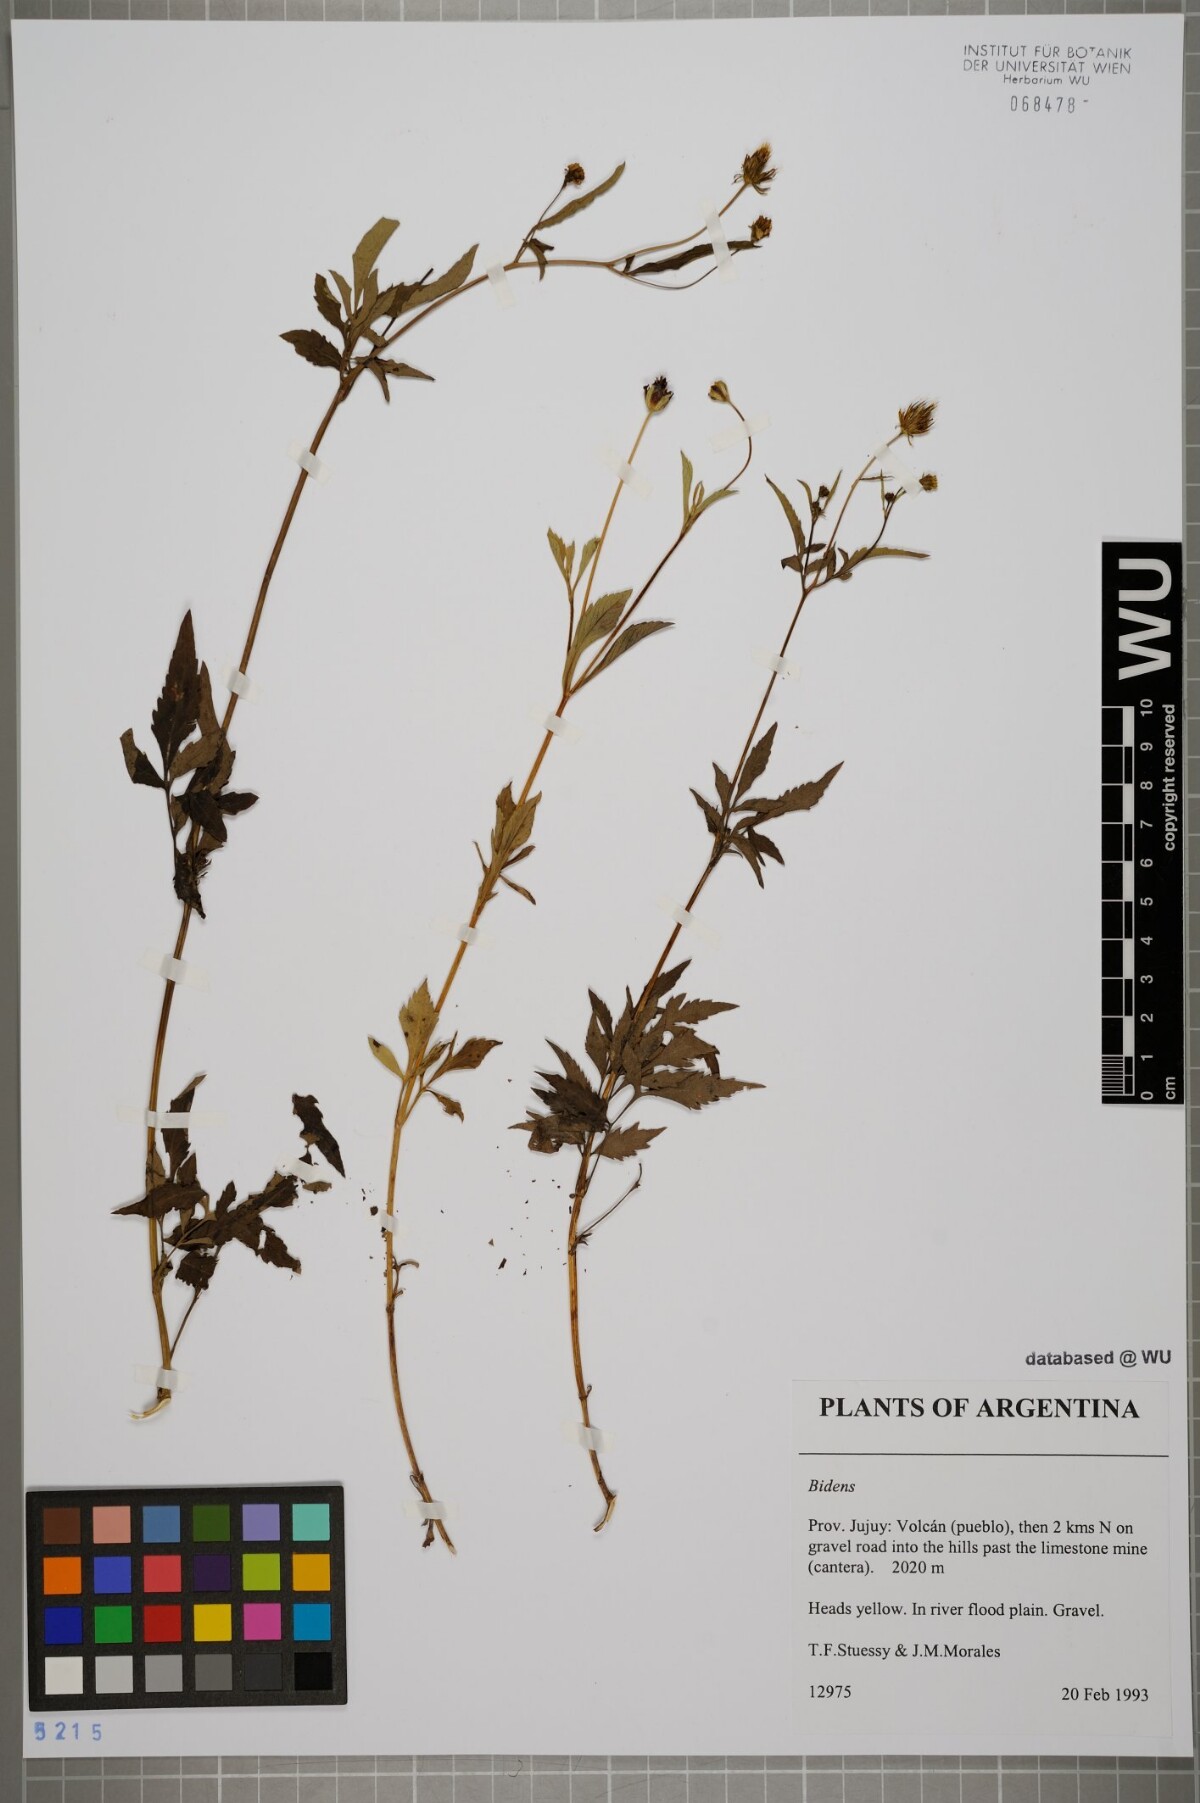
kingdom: Plantae
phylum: Tracheophyta
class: Magnoliopsida
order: Asterales
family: Asteraceae
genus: Bidens
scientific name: Bidens
